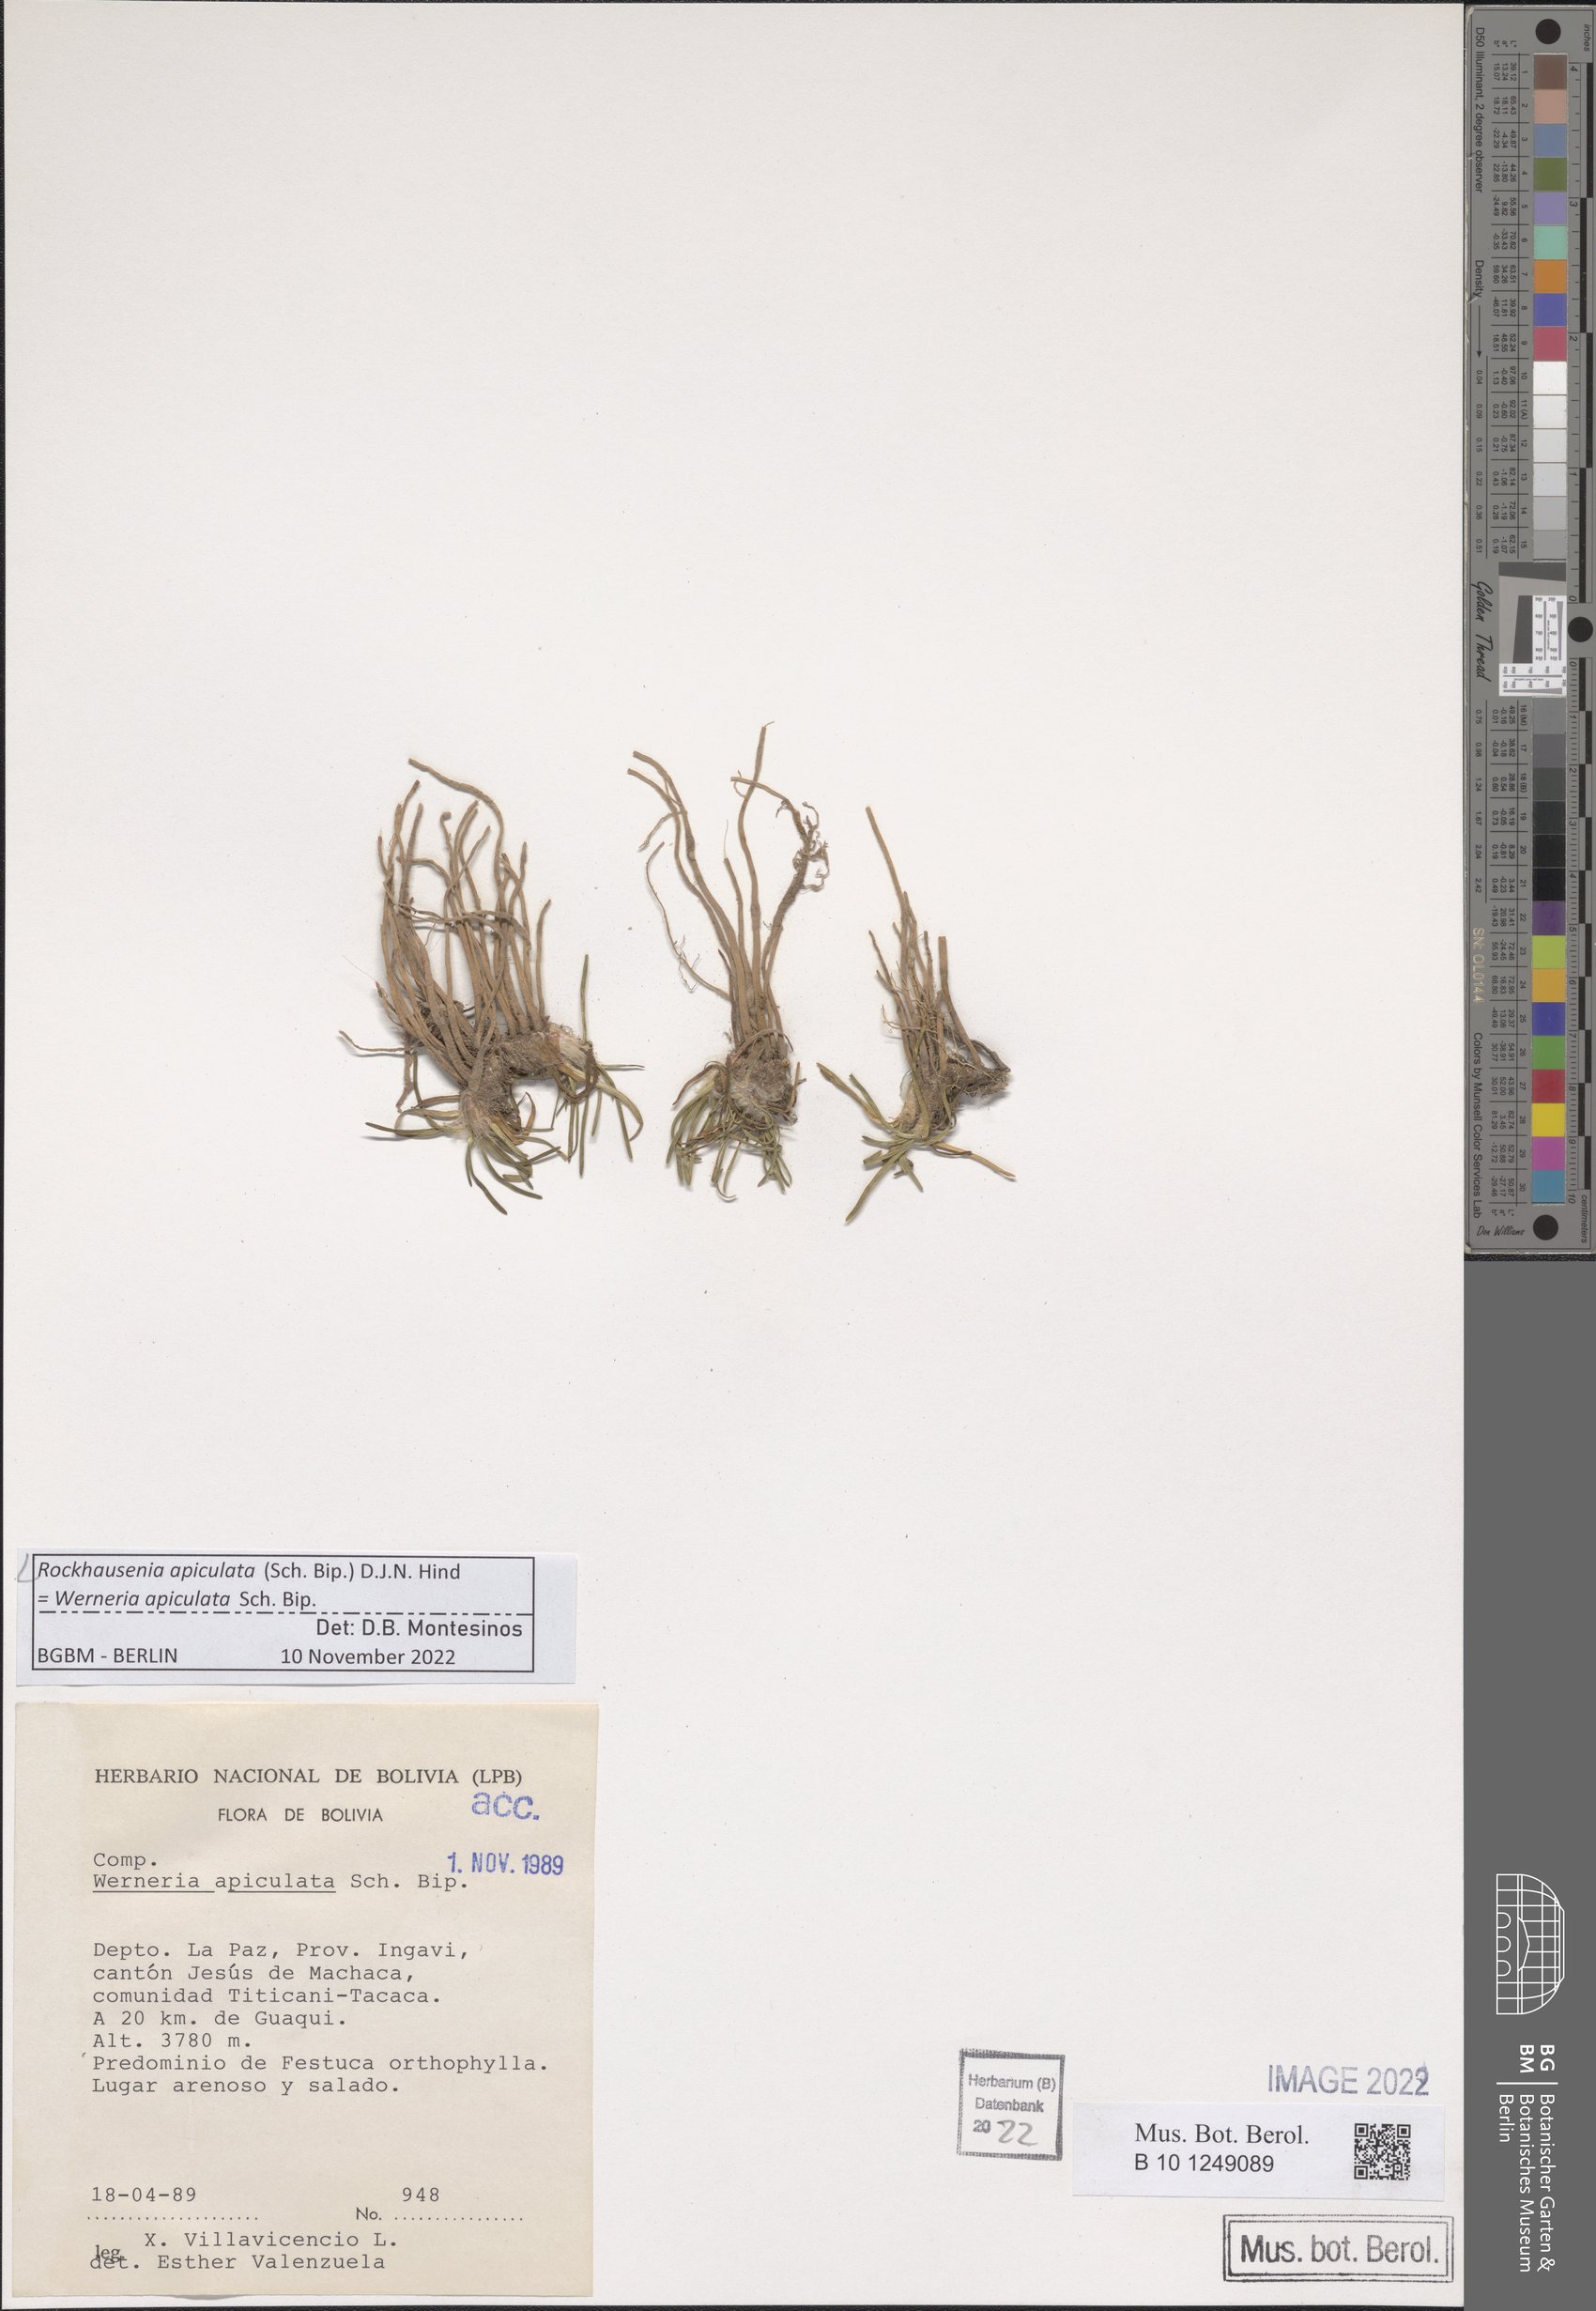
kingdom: Plantae
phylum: Tracheophyta
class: Magnoliopsida
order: Asterales
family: Asteraceae
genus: Rockhausenia
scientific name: Rockhausenia apiculata
